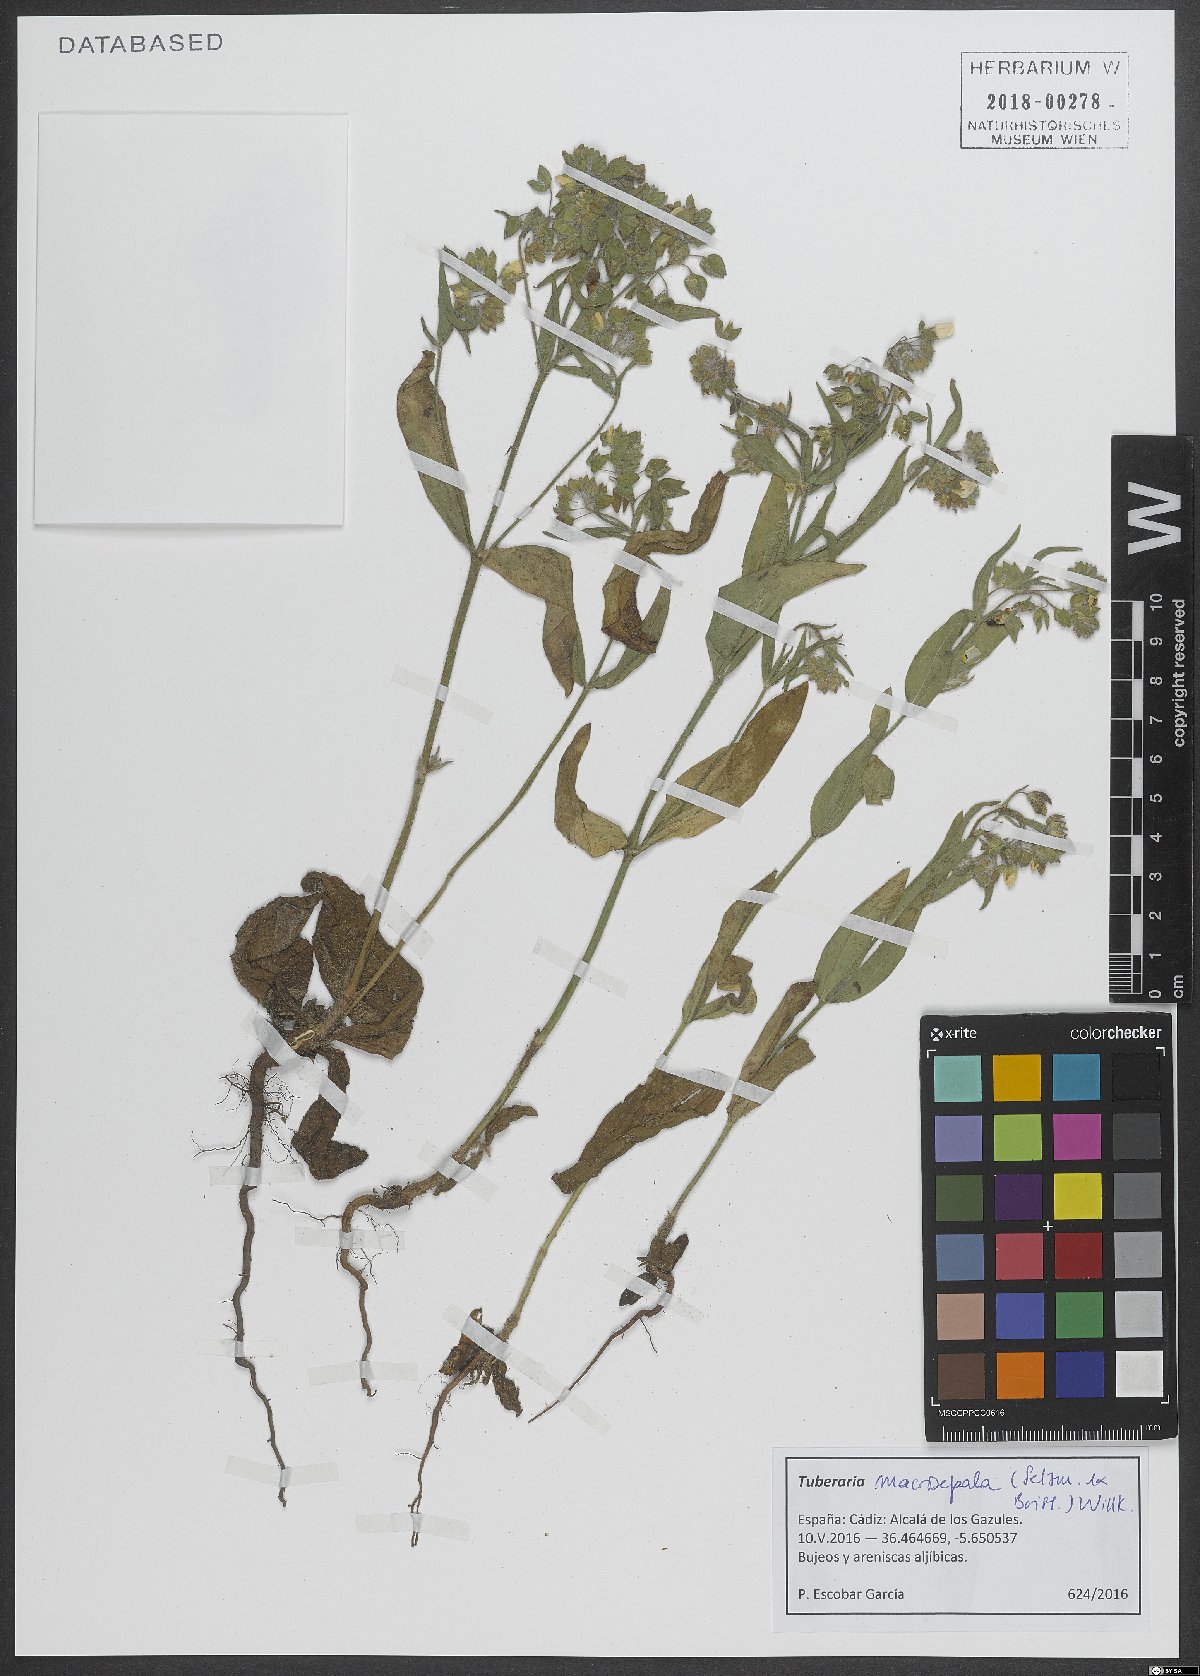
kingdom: Plantae
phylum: Tracheophyta
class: Magnoliopsida
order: Malvales
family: Cistaceae
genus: Tuberaria
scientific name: Tuberaria macrosepala
